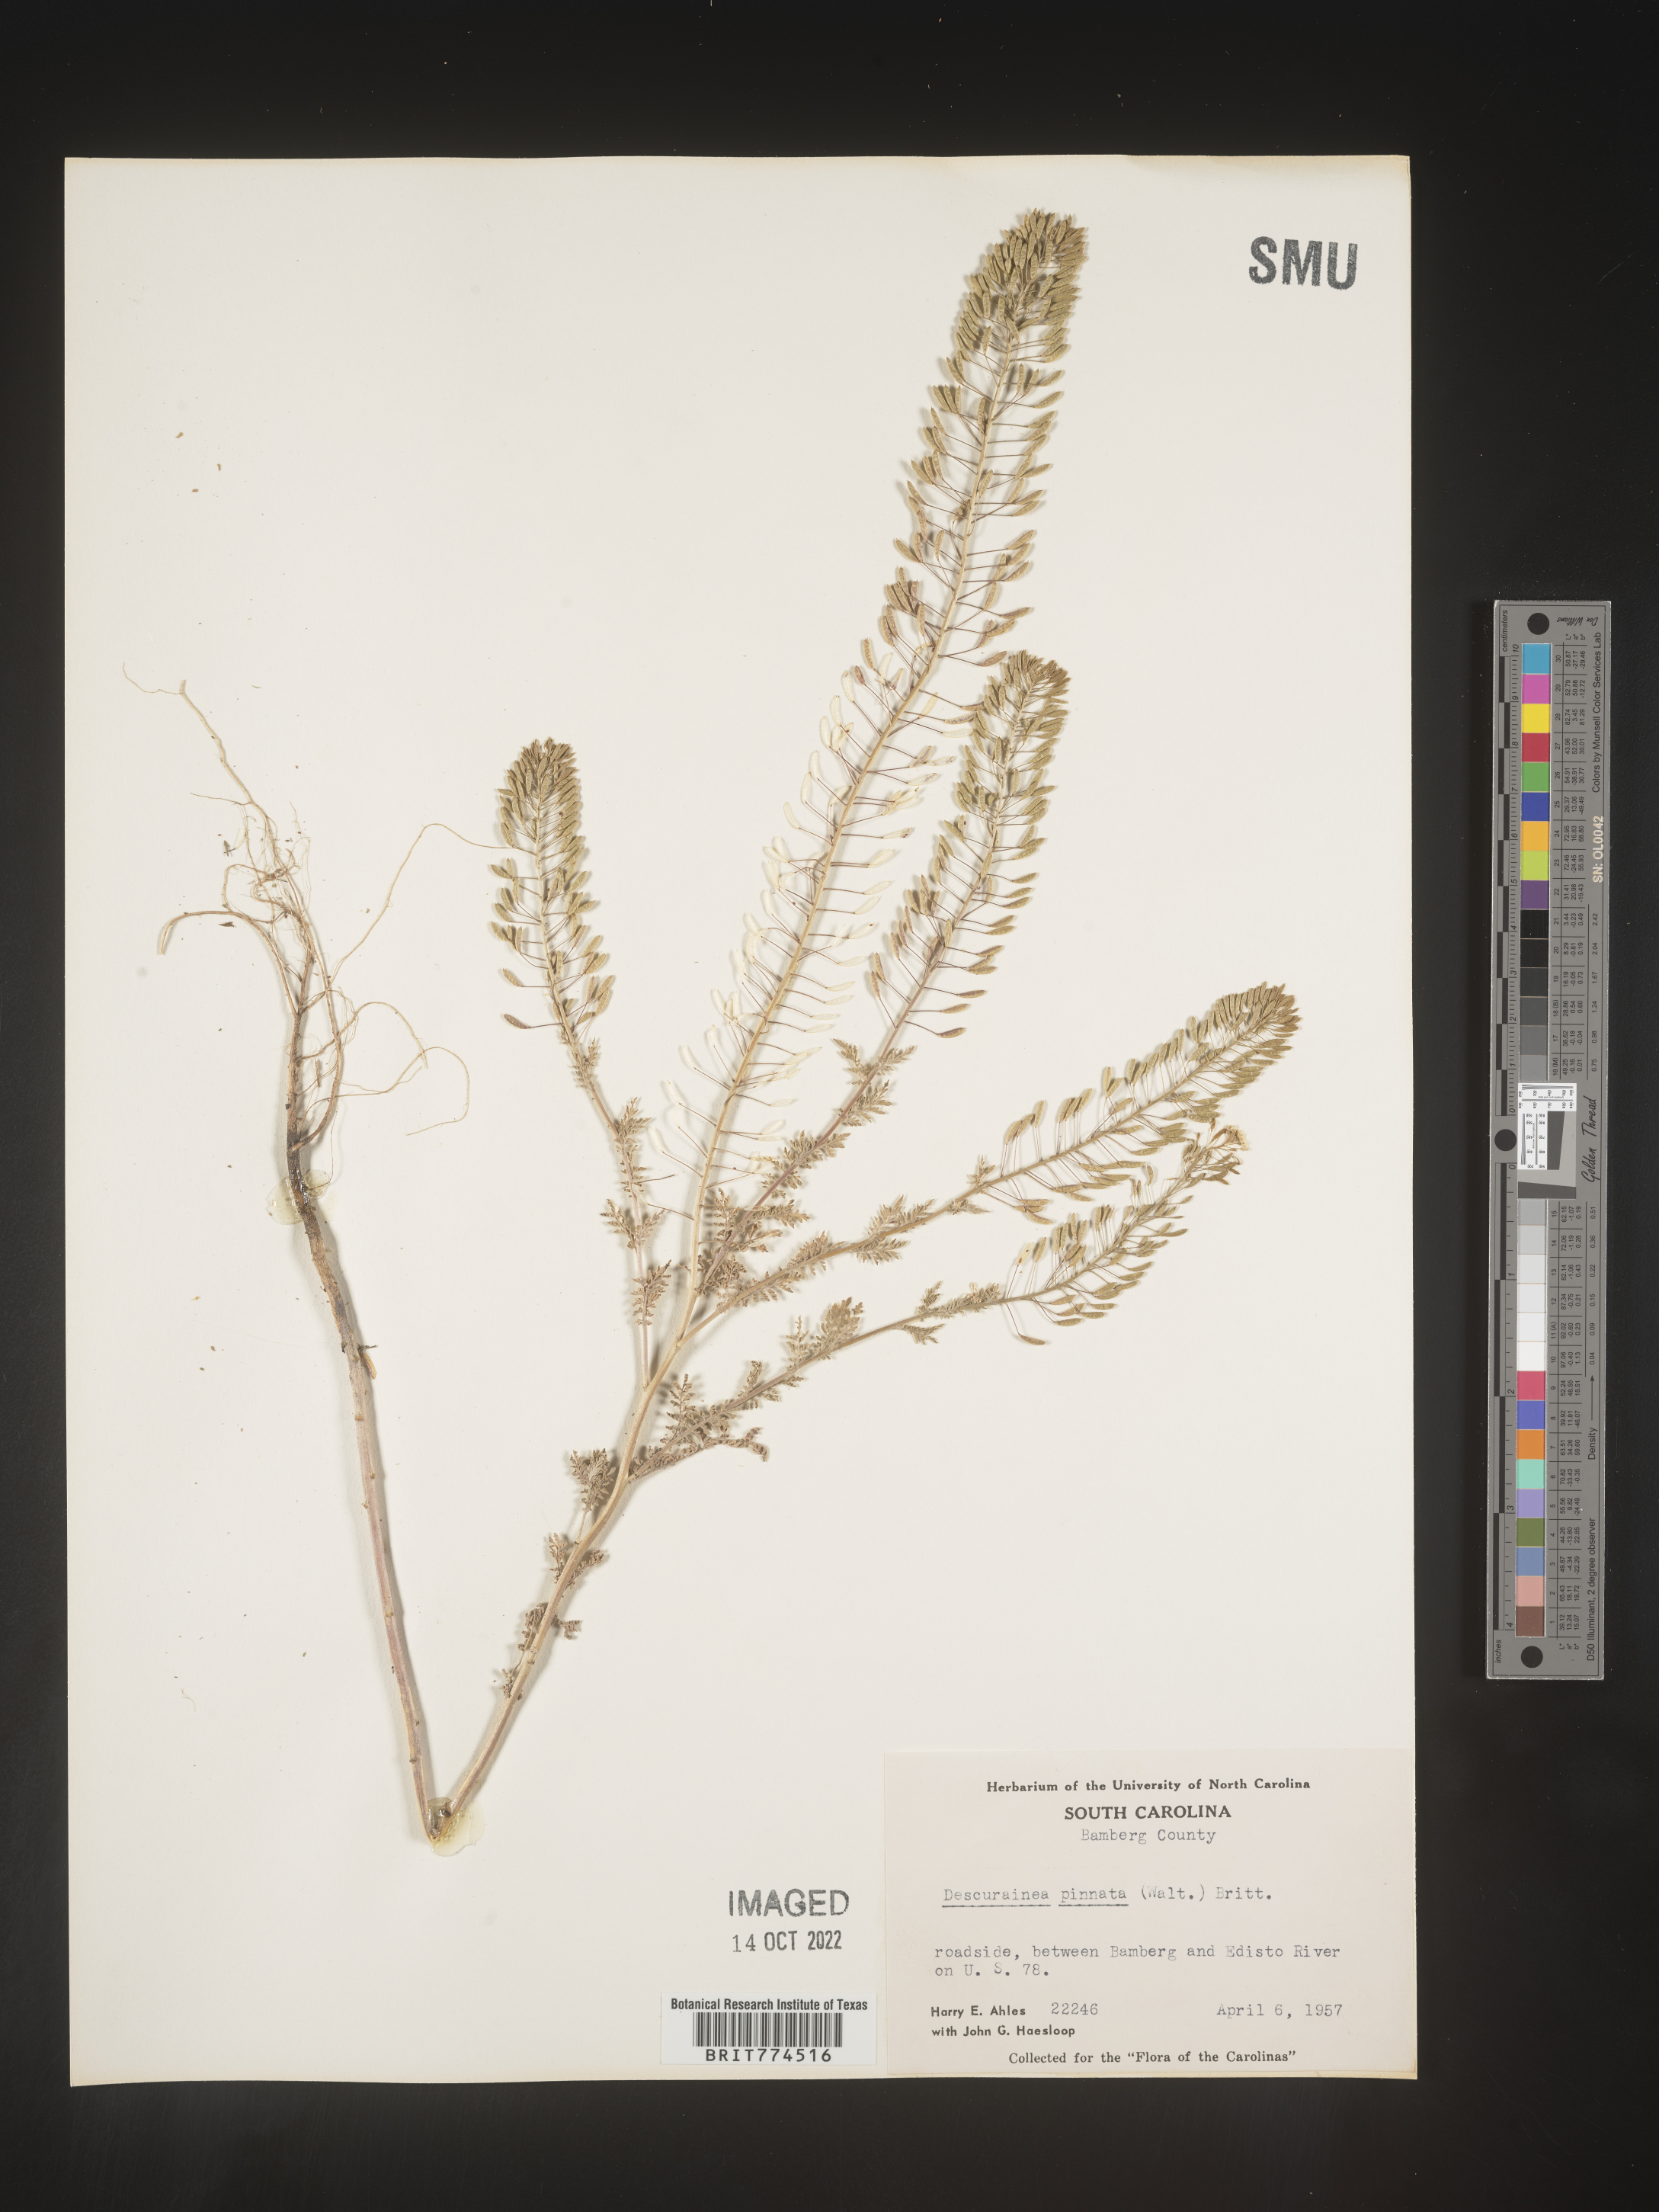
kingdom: Plantae
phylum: Tracheophyta
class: Magnoliopsida
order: Brassicales
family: Brassicaceae
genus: Descurainia
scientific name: Descurainia pinnata
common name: Western tansy mustard
